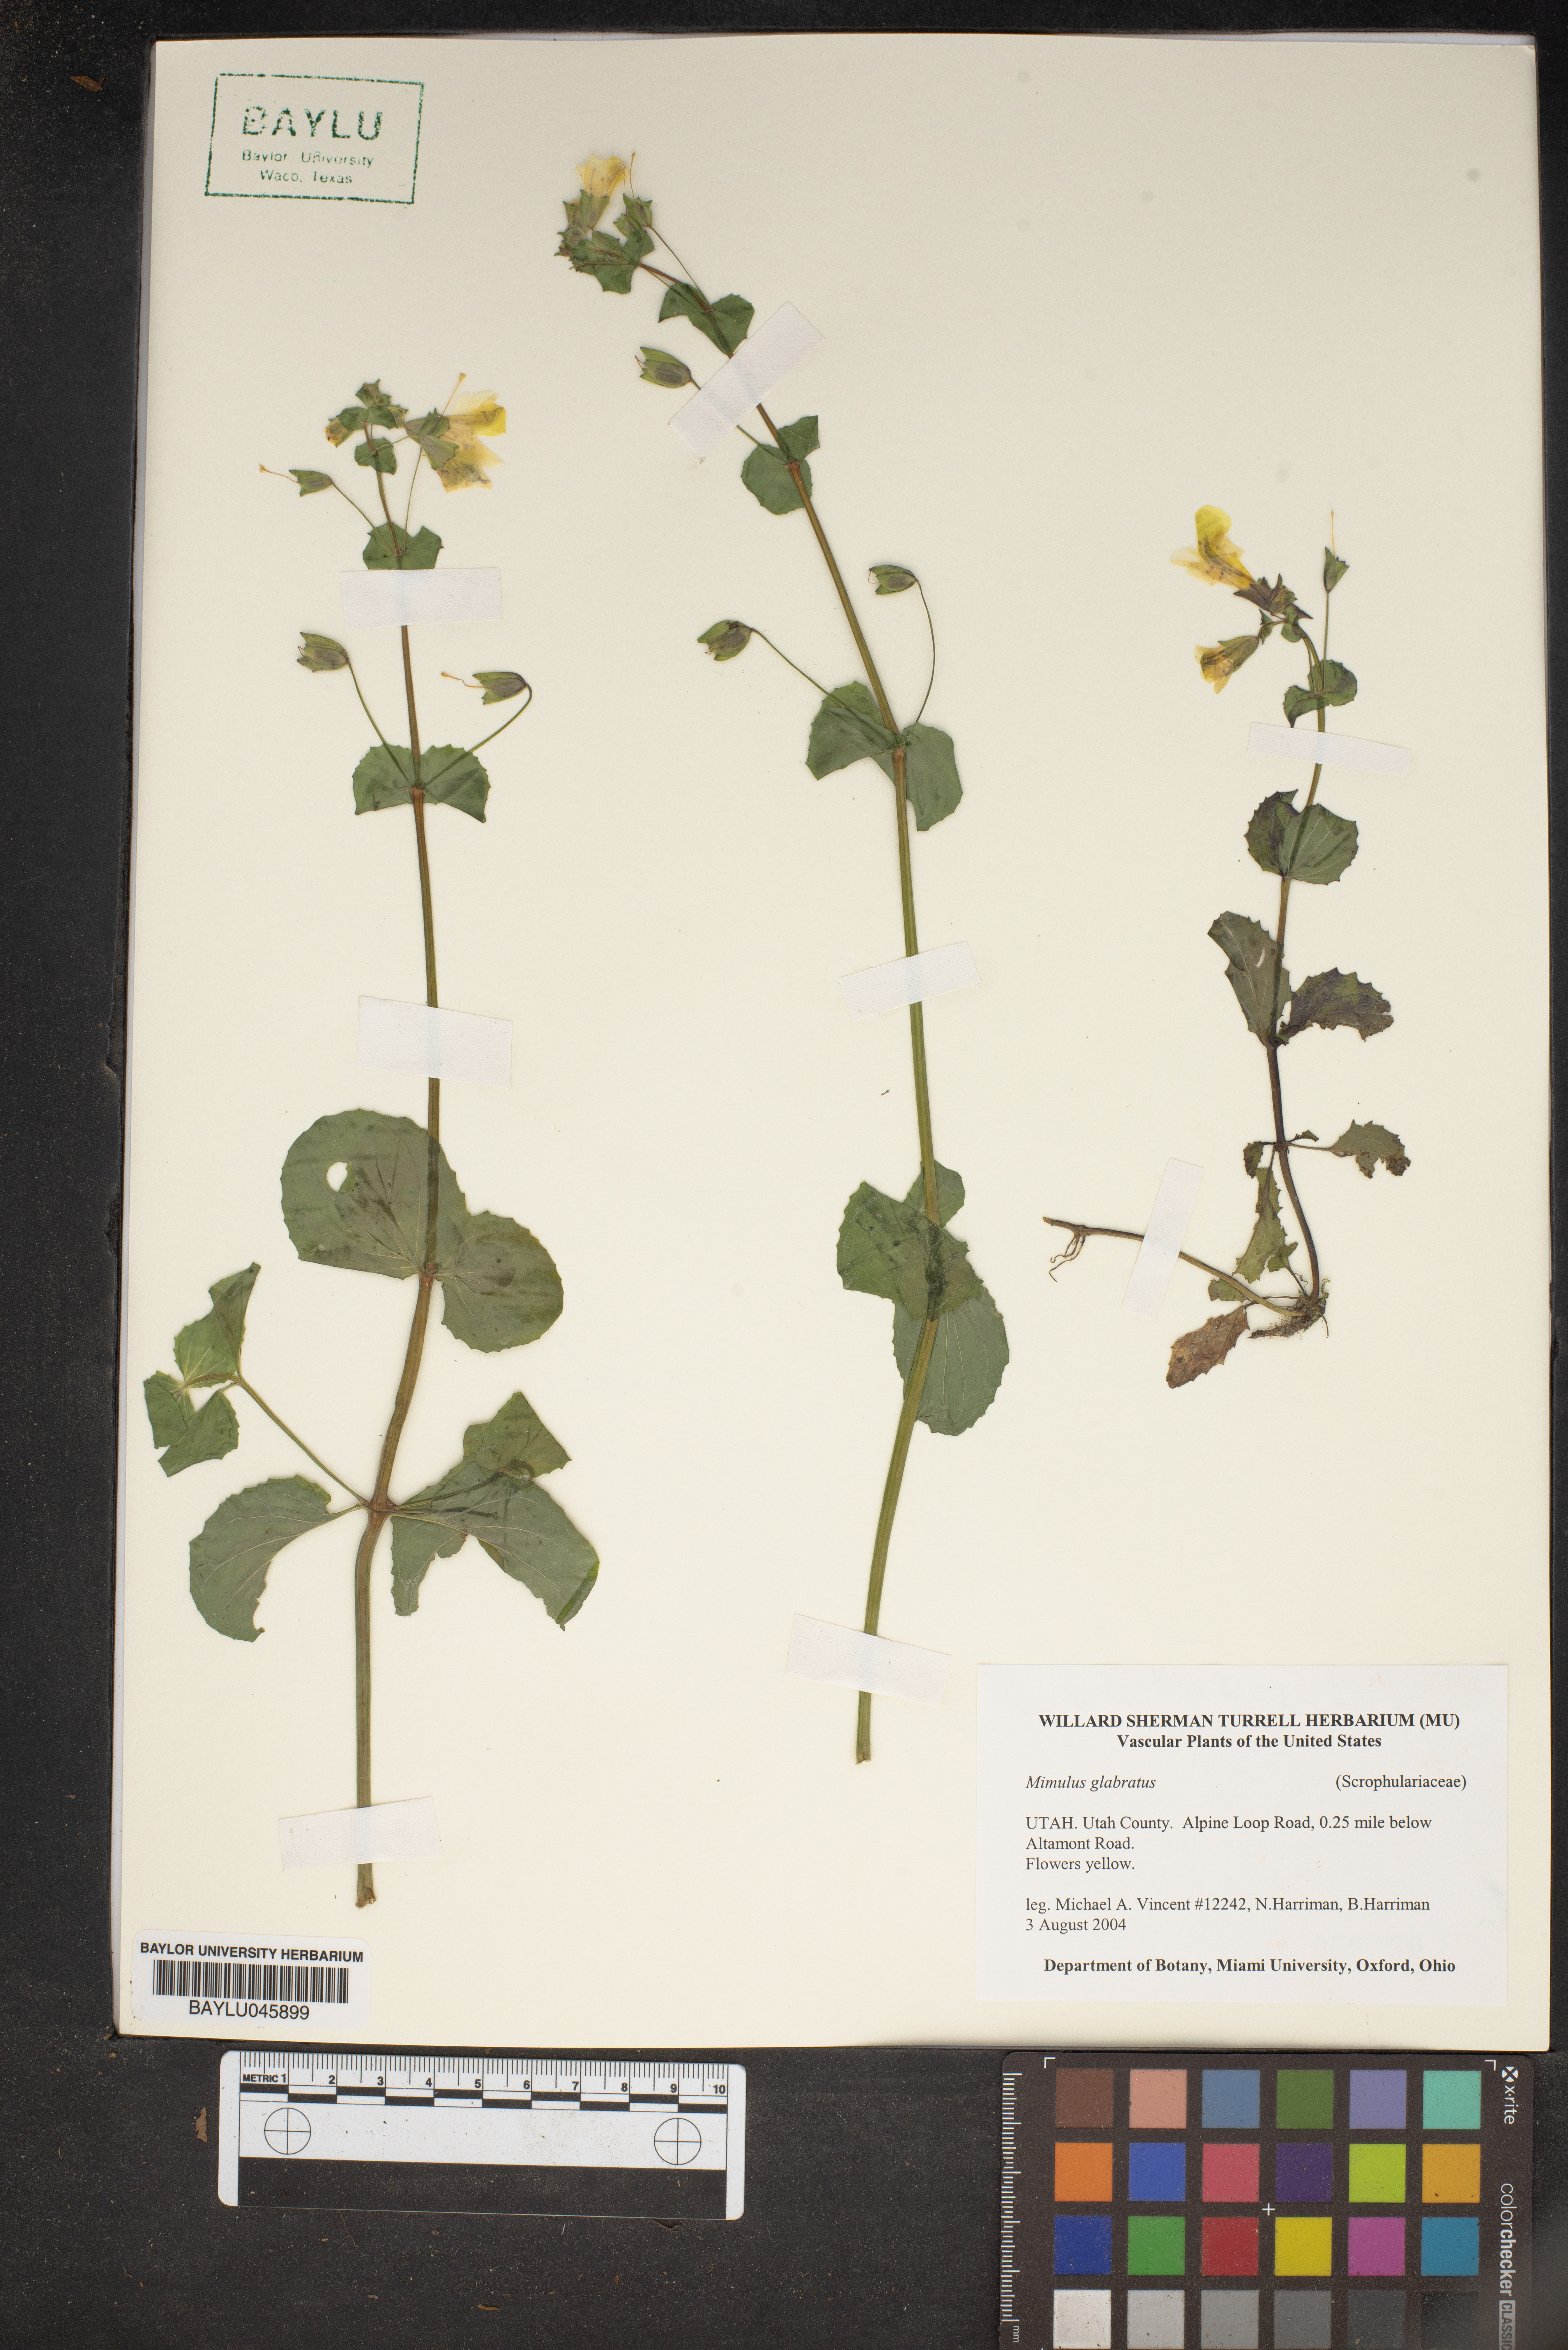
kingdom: Plantae
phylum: Tracheophyta
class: Magnoliopsida
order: Lamiales
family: Phrymaceae
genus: Erythranthe
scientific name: Erythranthe glabrata
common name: Round-leaved monkeyflower
